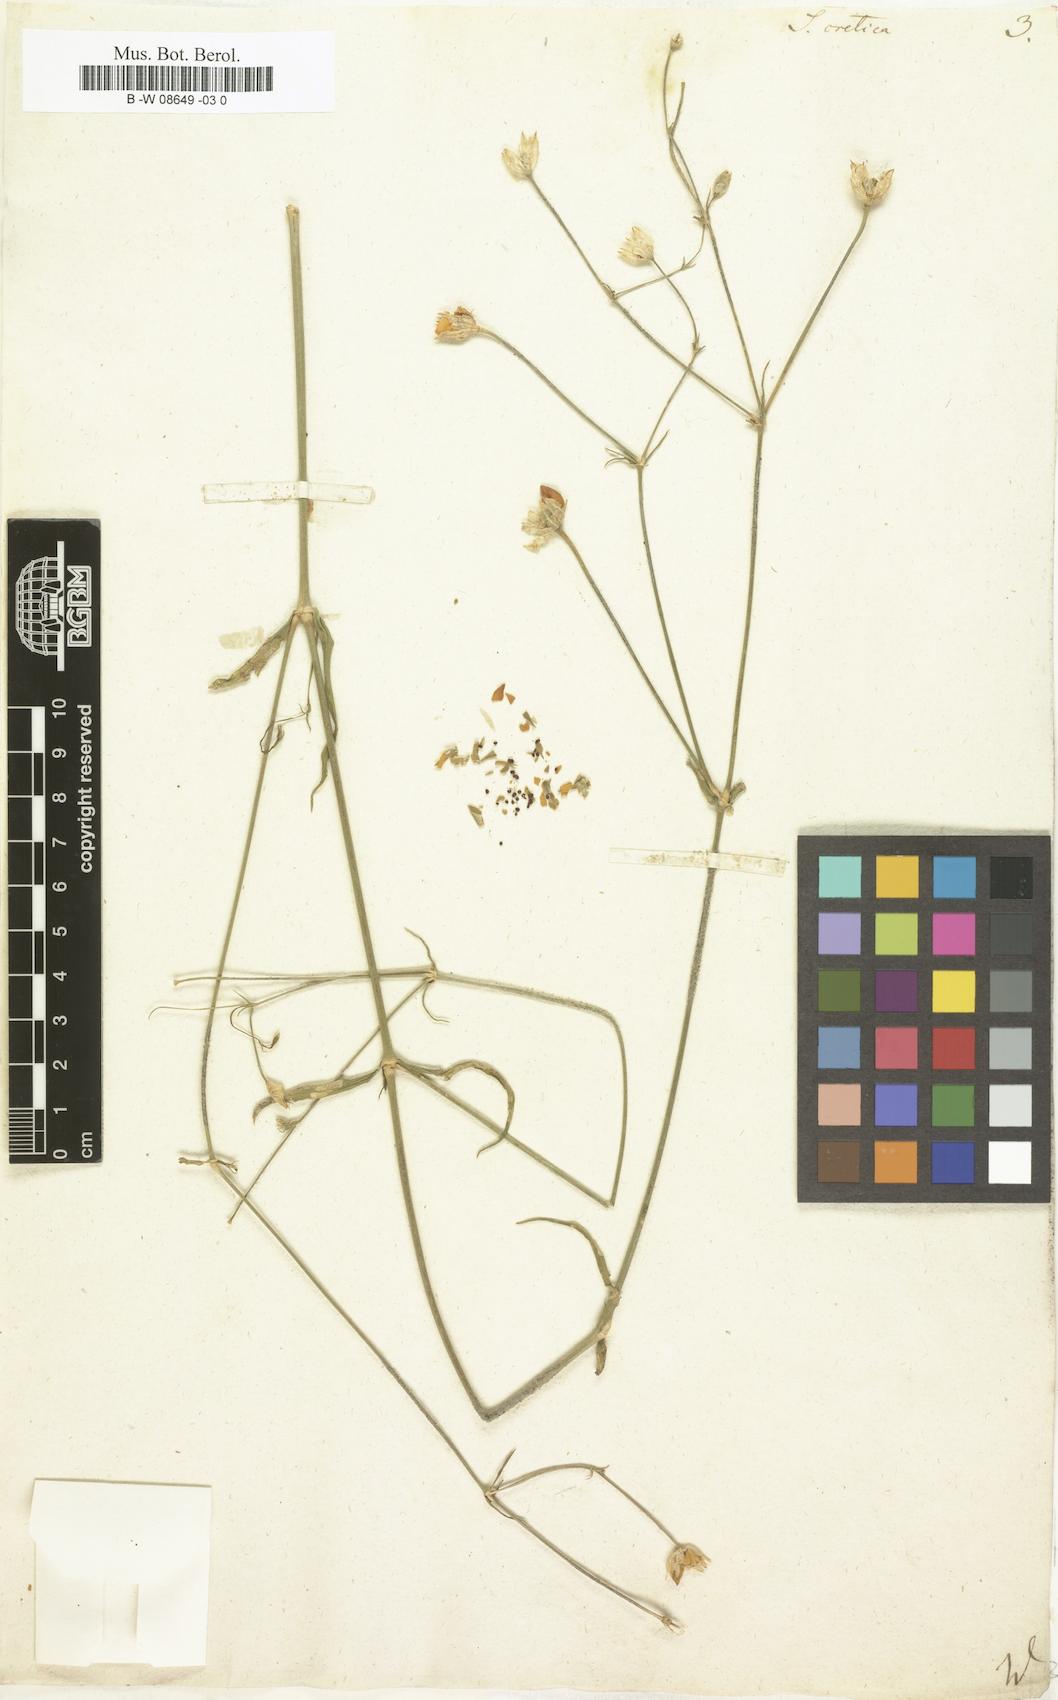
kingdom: Plantae
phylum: Tracheophyta
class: Magnoliopsida
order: Caryophyllales
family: Caryophyllaceae
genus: Silene
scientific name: Silene cretica
